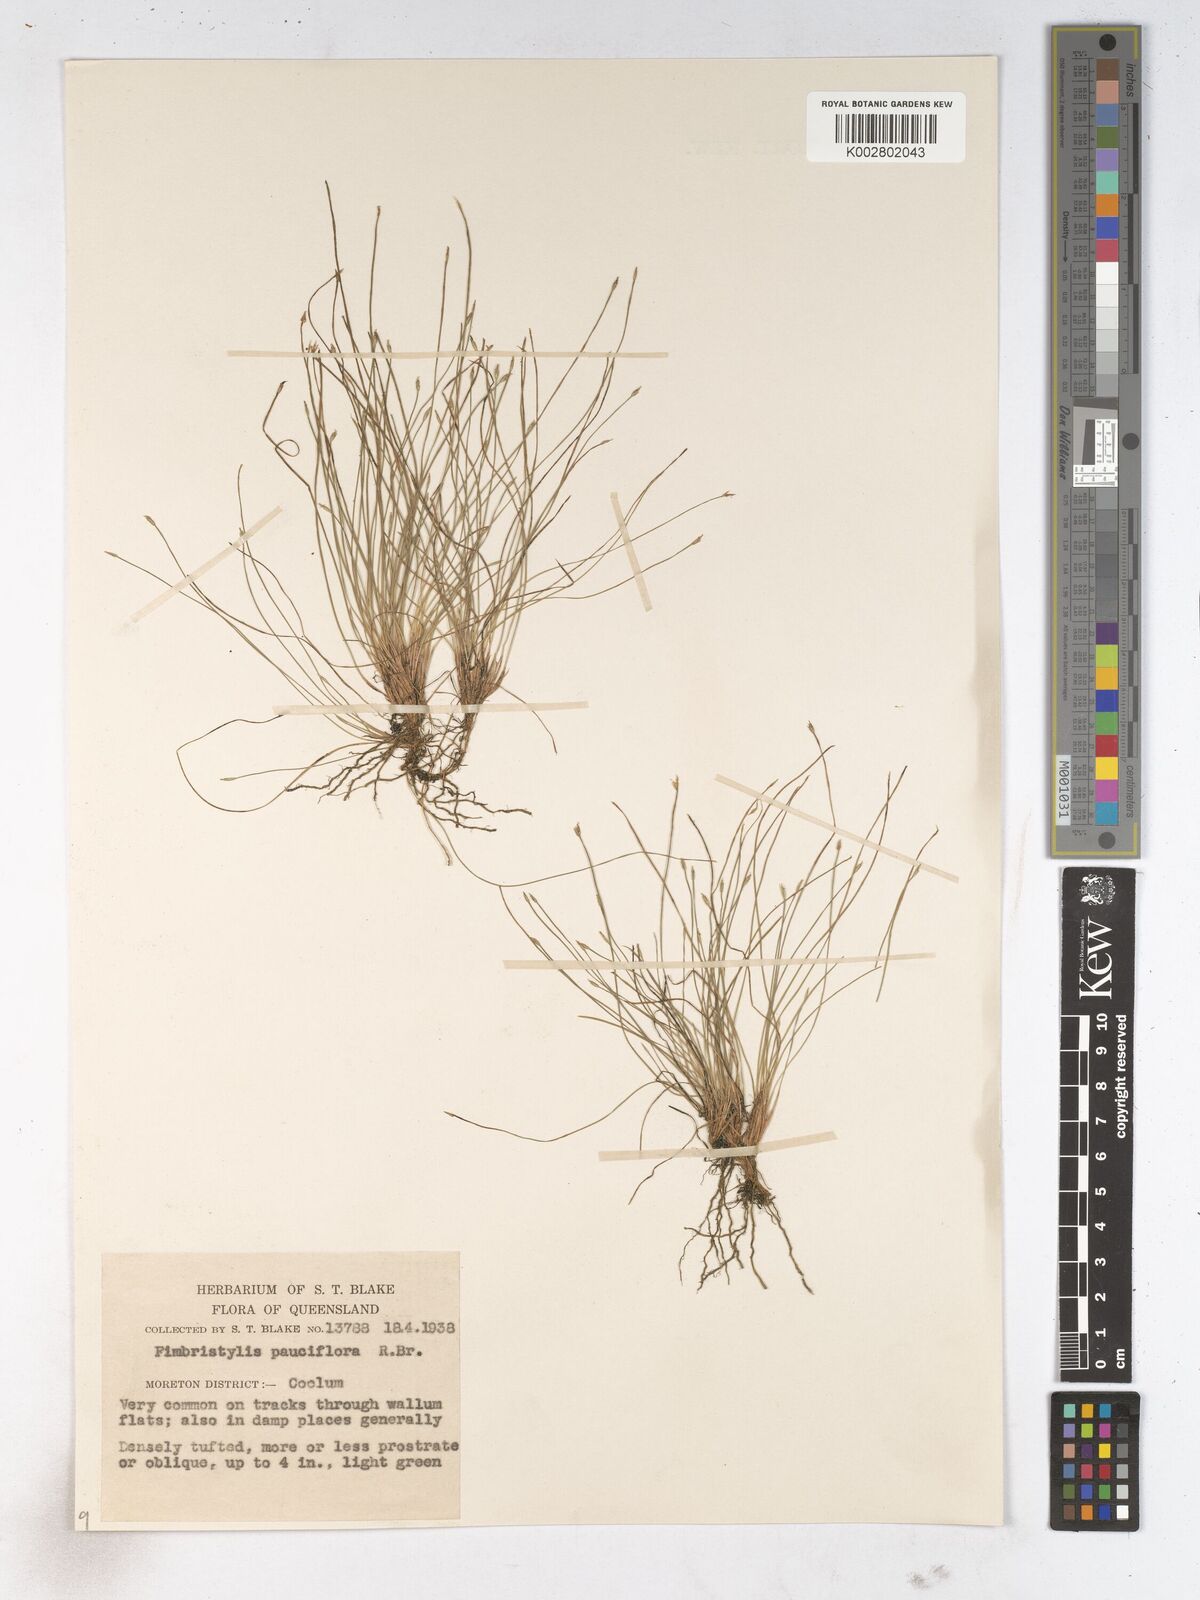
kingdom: Plantae
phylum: Tracheophyta
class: Liliopsida
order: Poales
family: Cyperaceae
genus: Fimbristylis
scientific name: Fimbristylis pauciflora
